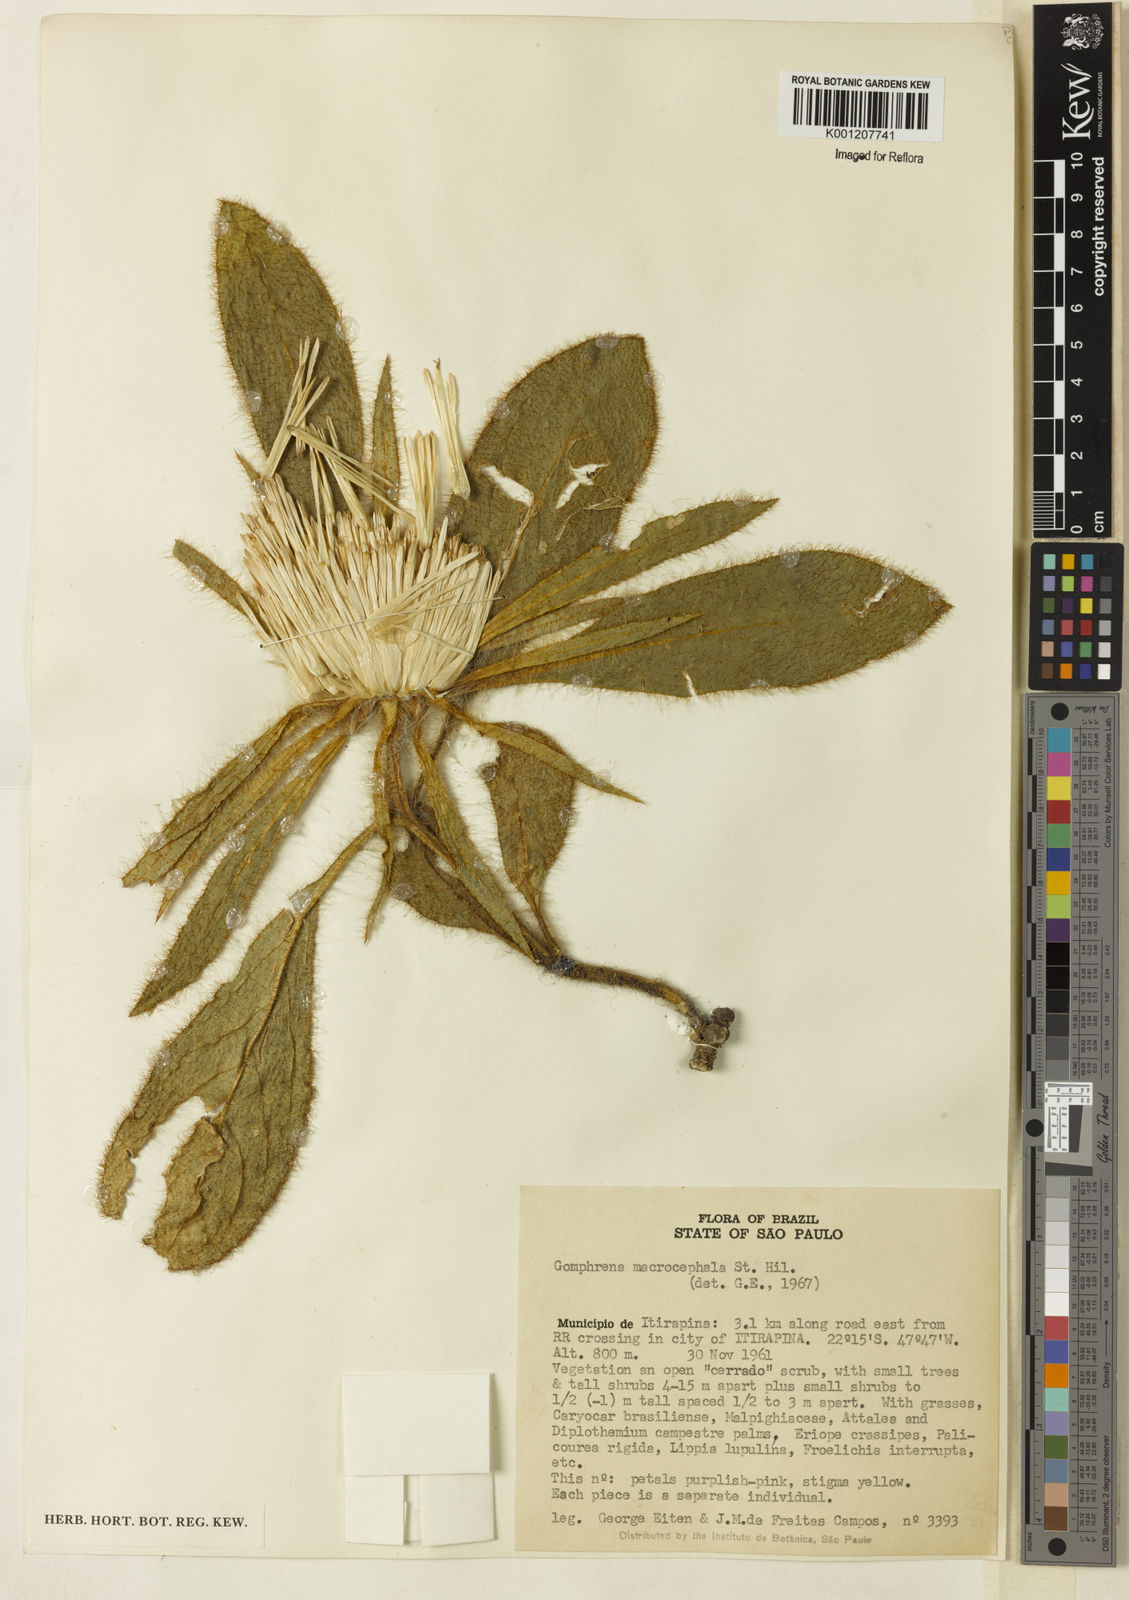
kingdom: Plantae
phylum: Tracheophyta
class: Magnoliopsida
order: Caryophyllales
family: Amaranthaceae
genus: Gomphrena
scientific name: Gomphrena macrocephala
